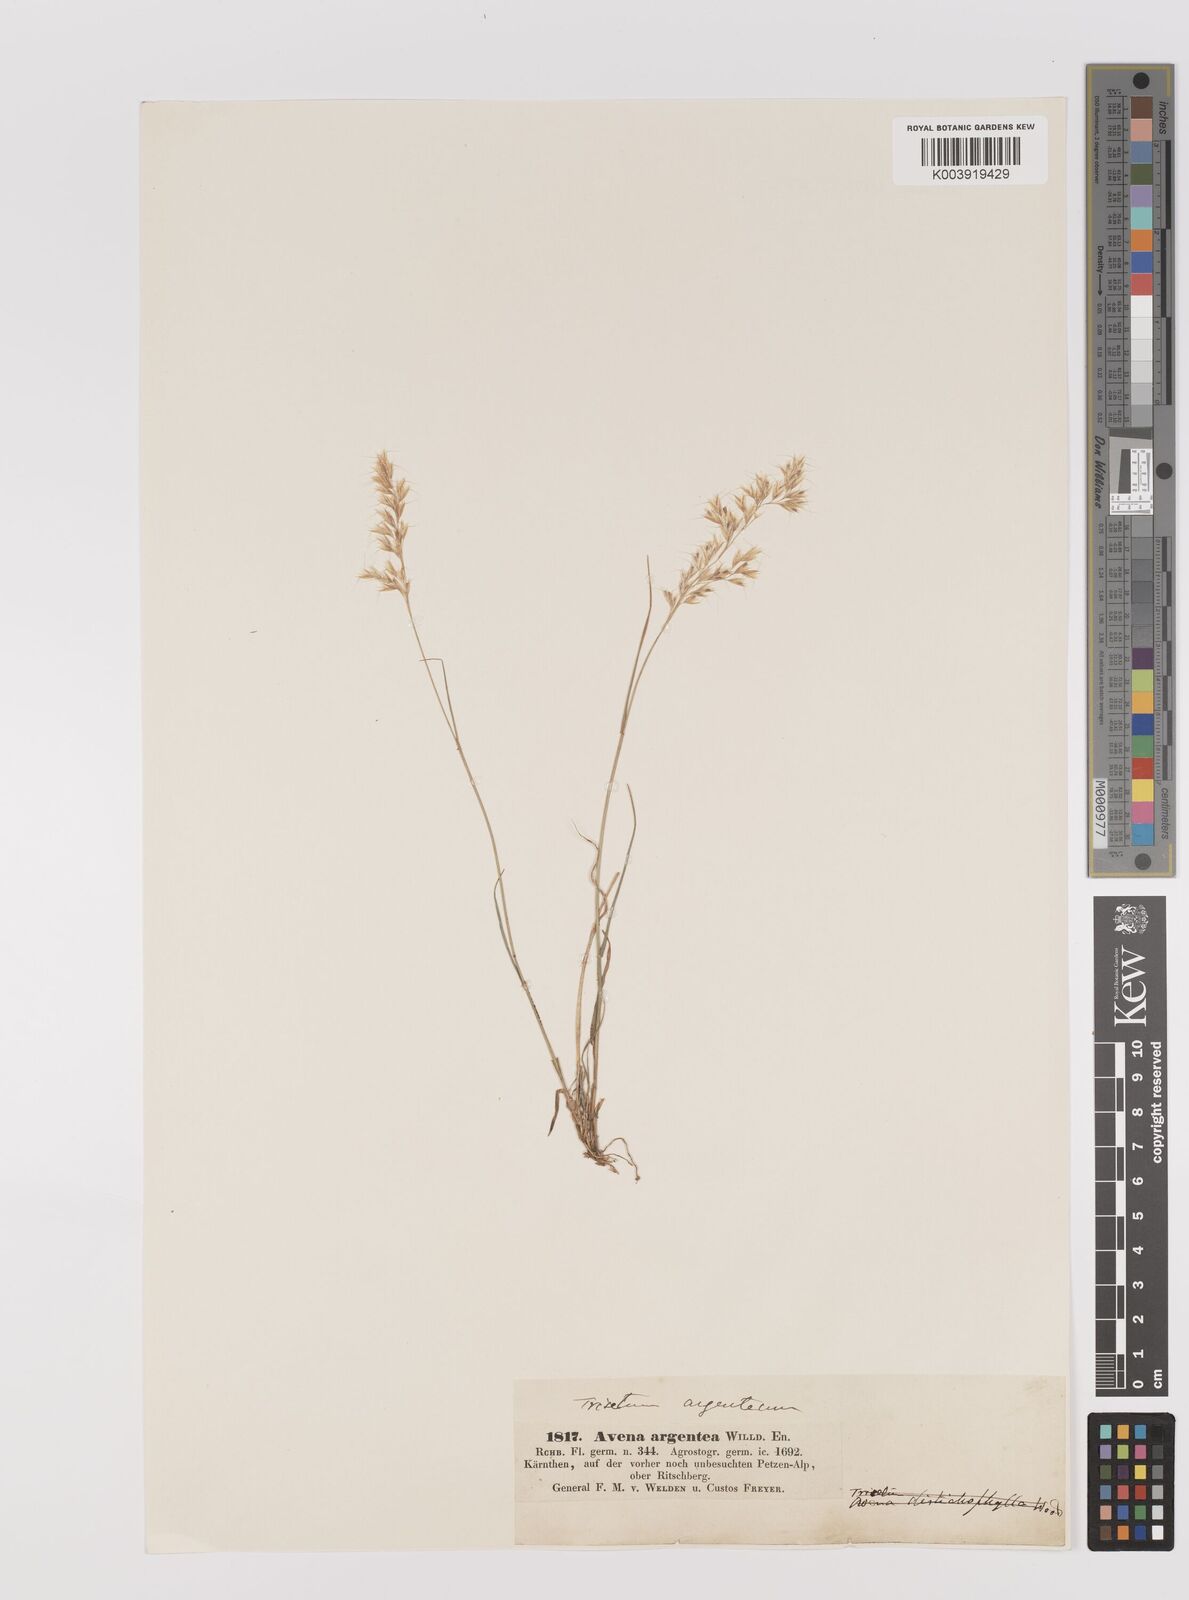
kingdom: Plantae
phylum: Tracheophyta
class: Liliopsida
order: Poales
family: Poaceae
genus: Trisetum
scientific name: Trisetum argenteum
